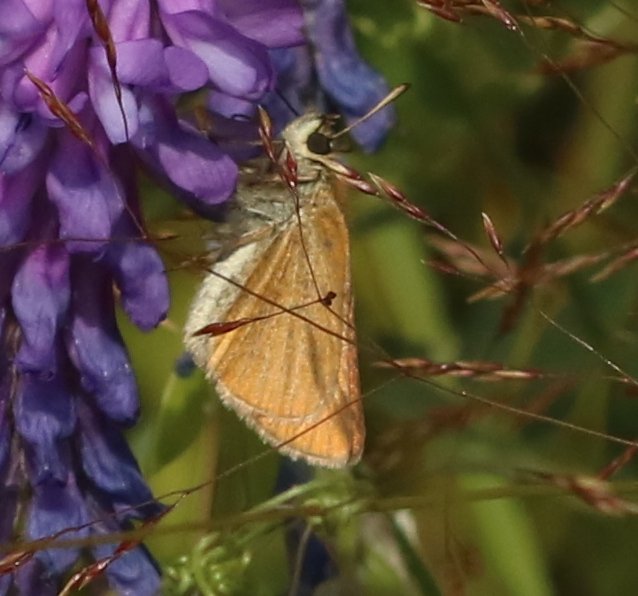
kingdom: Animalia
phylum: Arthropoda
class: Insecta
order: Lepidoptera
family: Hesperiidae
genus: Thymelicus
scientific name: Thymelicus lineola
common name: European Skipper
